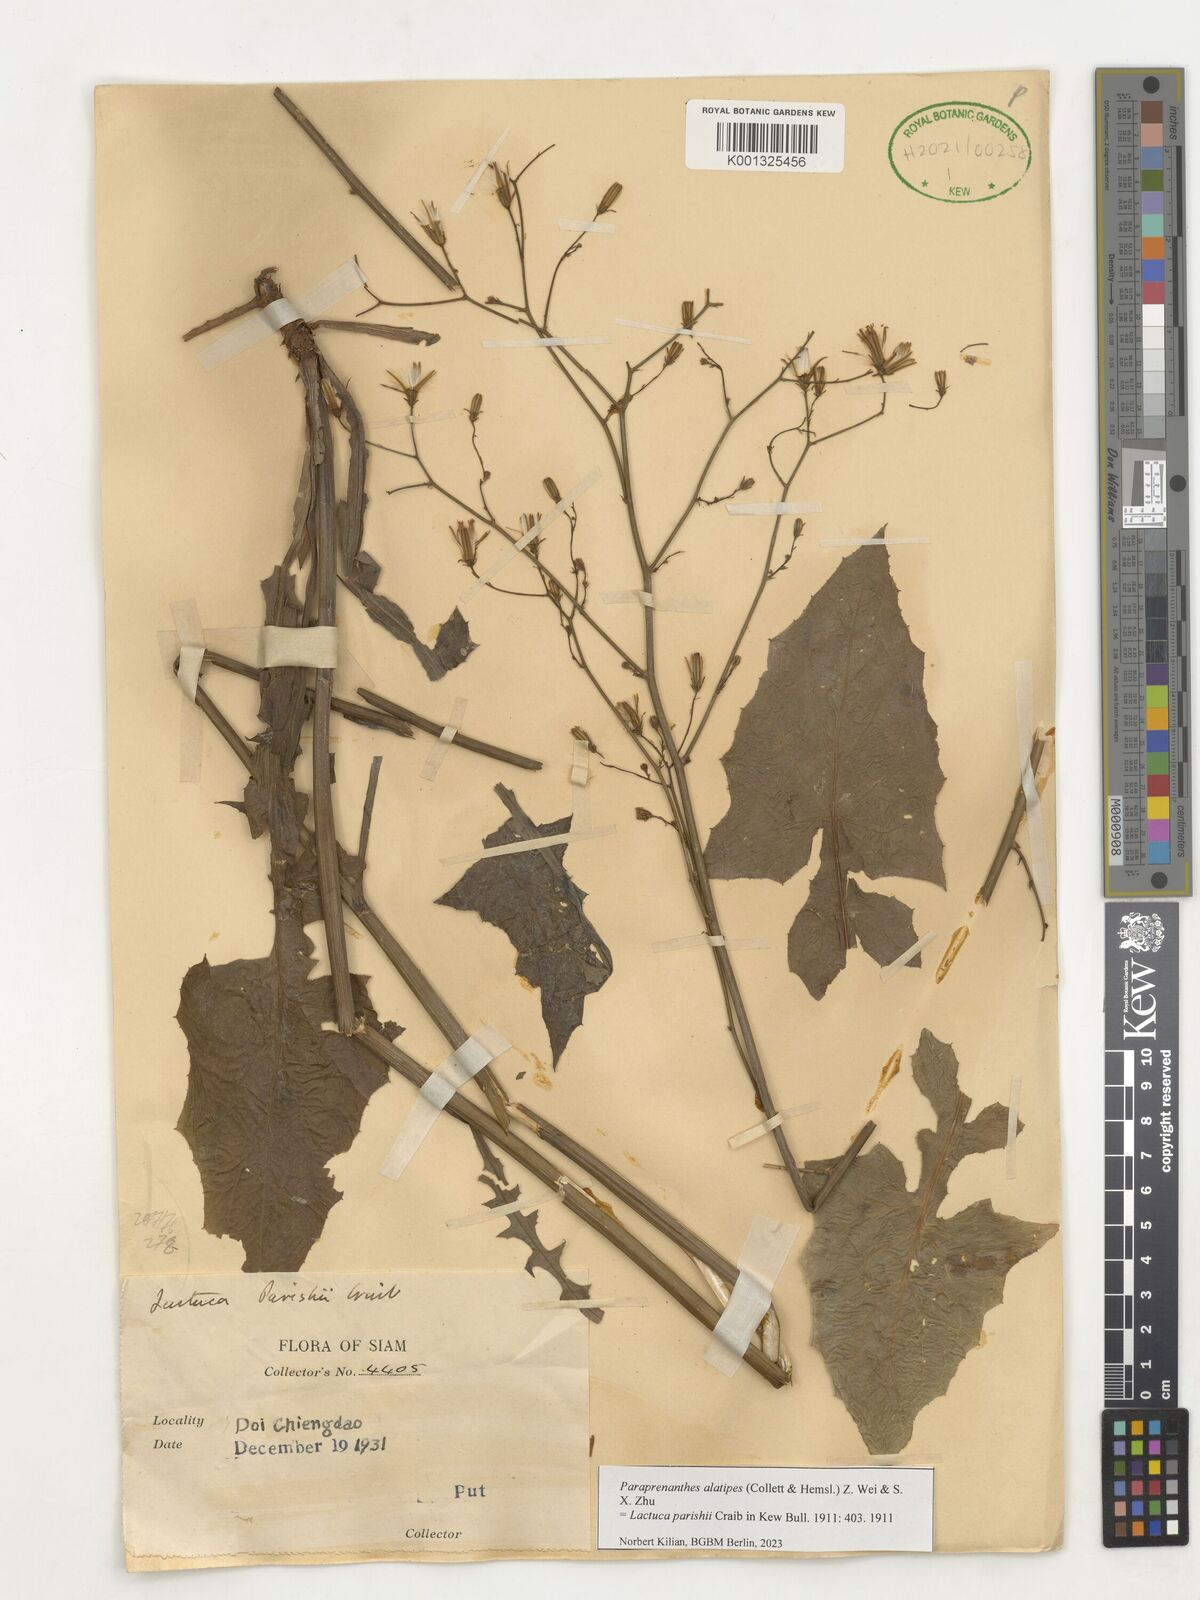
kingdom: Plantae
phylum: Tracheophyta
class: Magnoliopsida
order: Asterales
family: Asteraceae
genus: Paraprenanthes
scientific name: Paraprenanthes umbrosa
